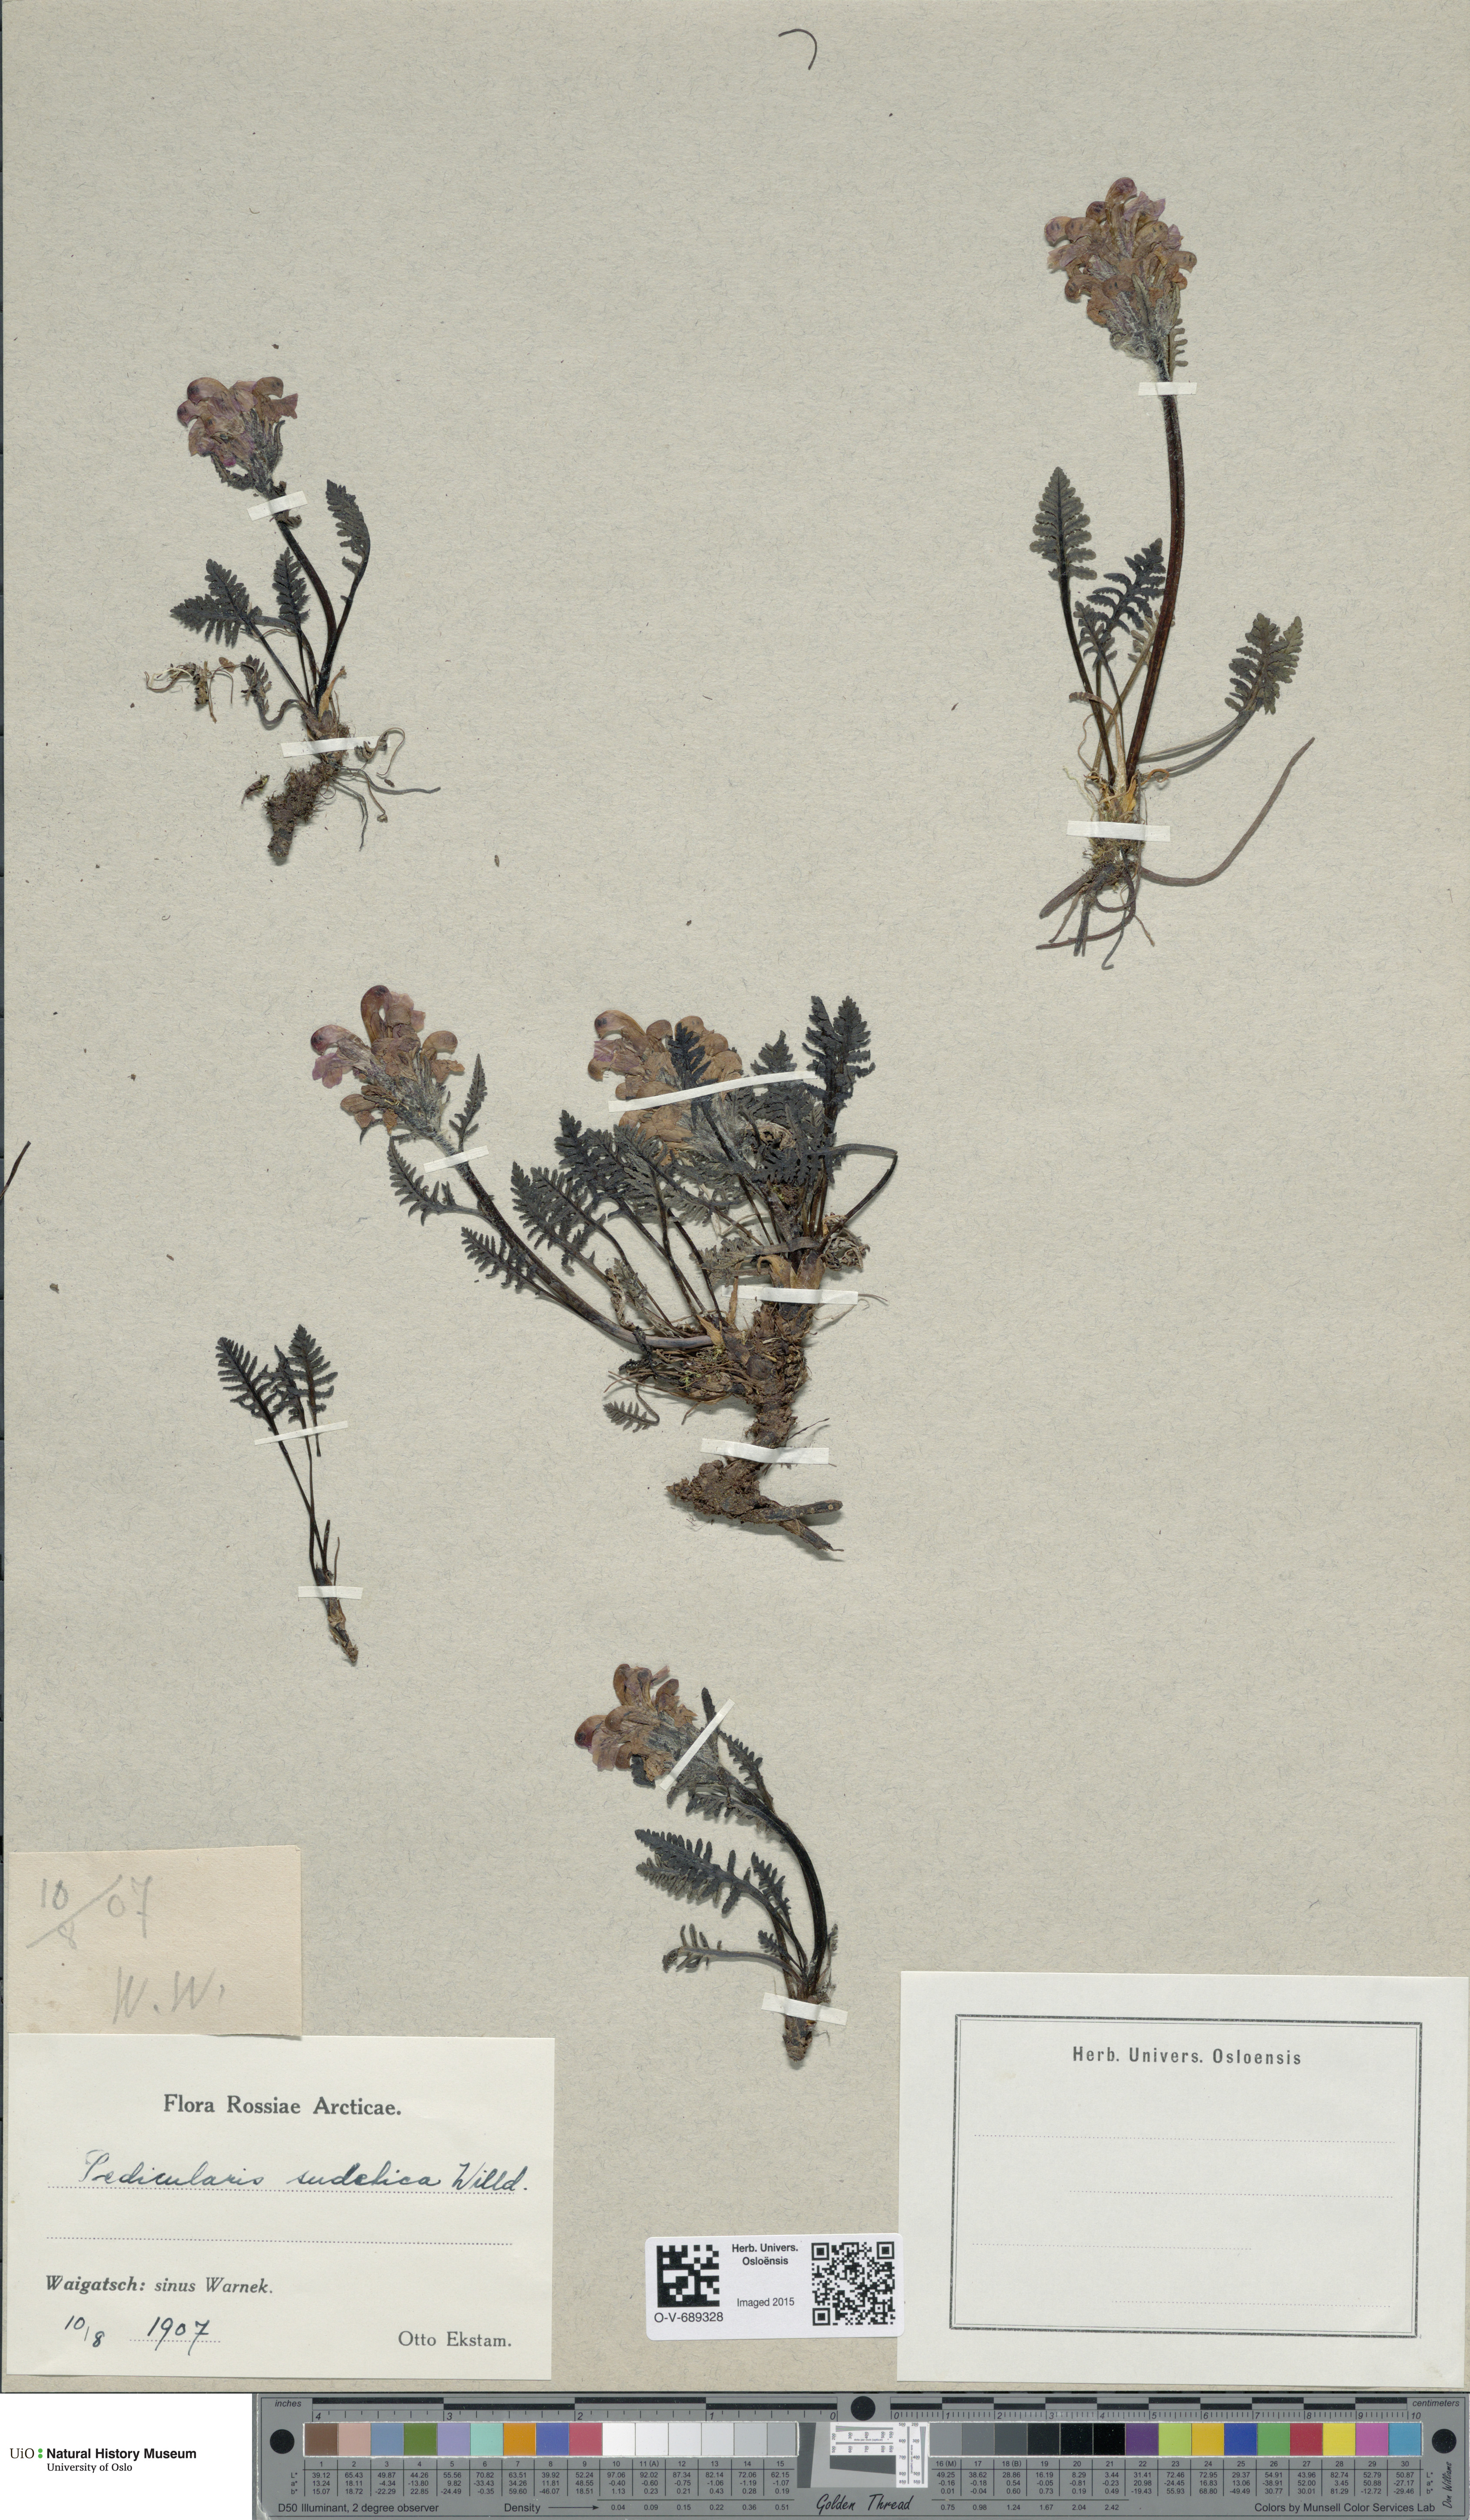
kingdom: Plantae
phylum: Tracheophyta
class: Magnoliopsida
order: Lamiales
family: Orobanchaceae
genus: Pedicularis
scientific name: Pedicularis sudetica
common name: Sudeten lousewort
